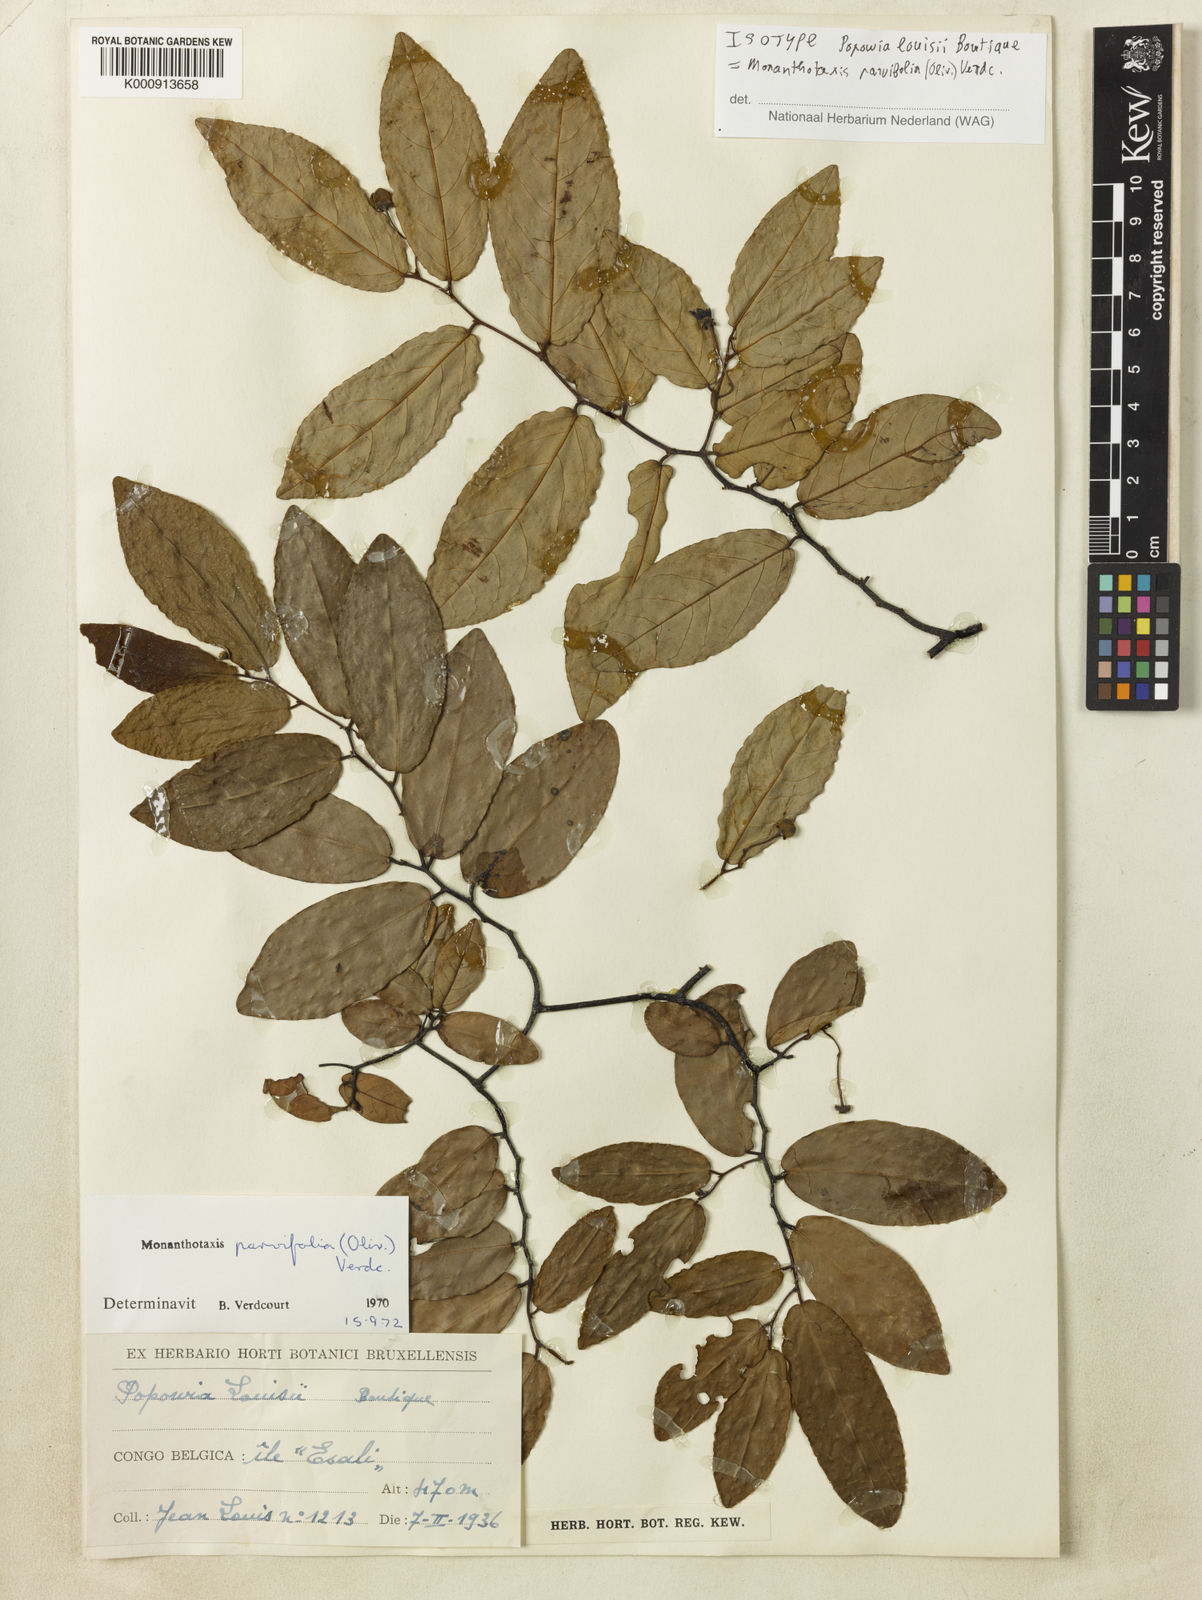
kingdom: Plantae
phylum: Tracheophyta
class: Magnoliopsida
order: Magnoliales
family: Annonaceae
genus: Monanthotaxis
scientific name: Monanthotaxis parvifolia
